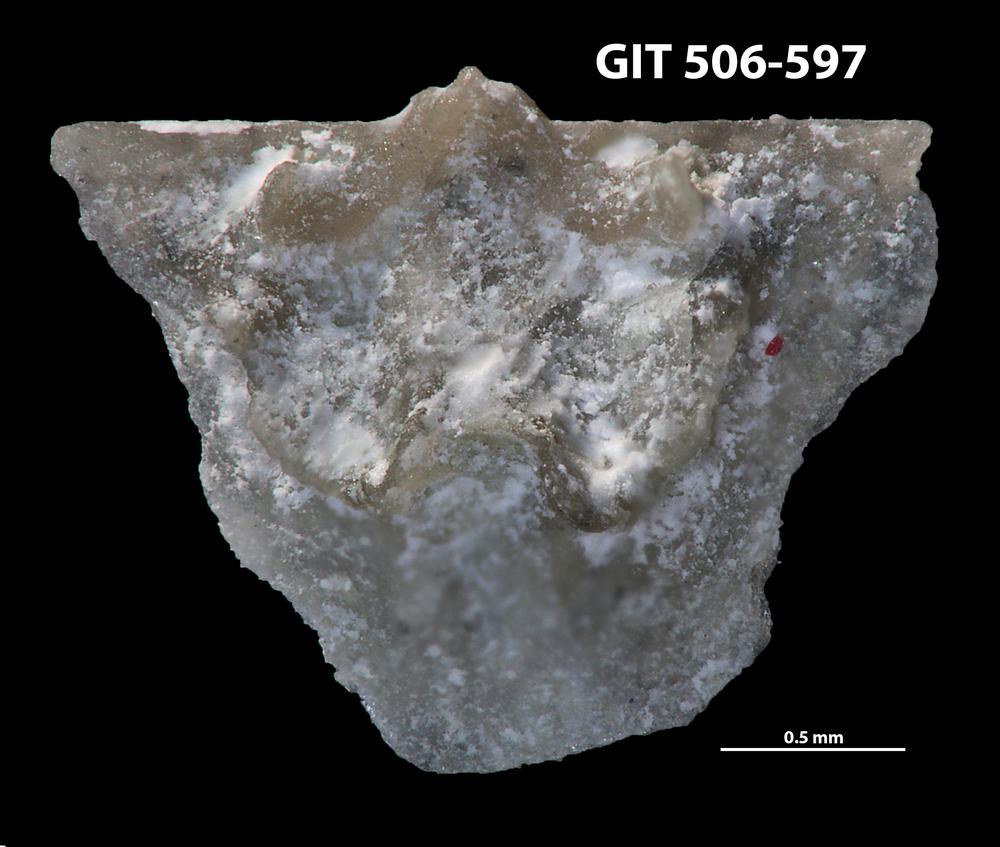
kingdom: Animalia
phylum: Brachiopoda
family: Leptellinidae
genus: Leangella
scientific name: Leangella Plectambonites scissa
